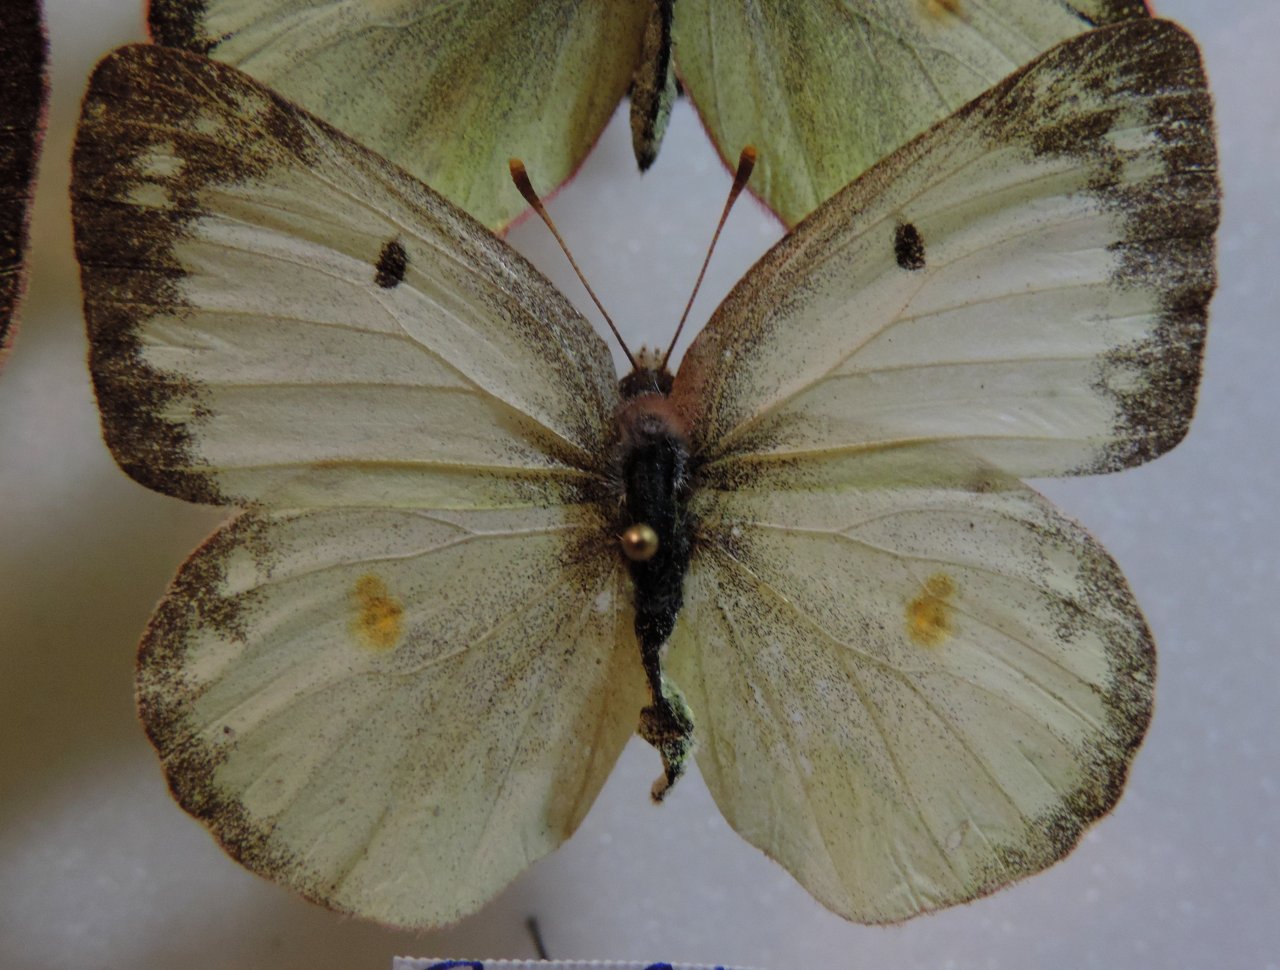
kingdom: Animalia
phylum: Arthropoda
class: Insecta
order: Lepidoptera
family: Pieridae
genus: Colias
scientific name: Colias philodice
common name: Clouded Sulphur
